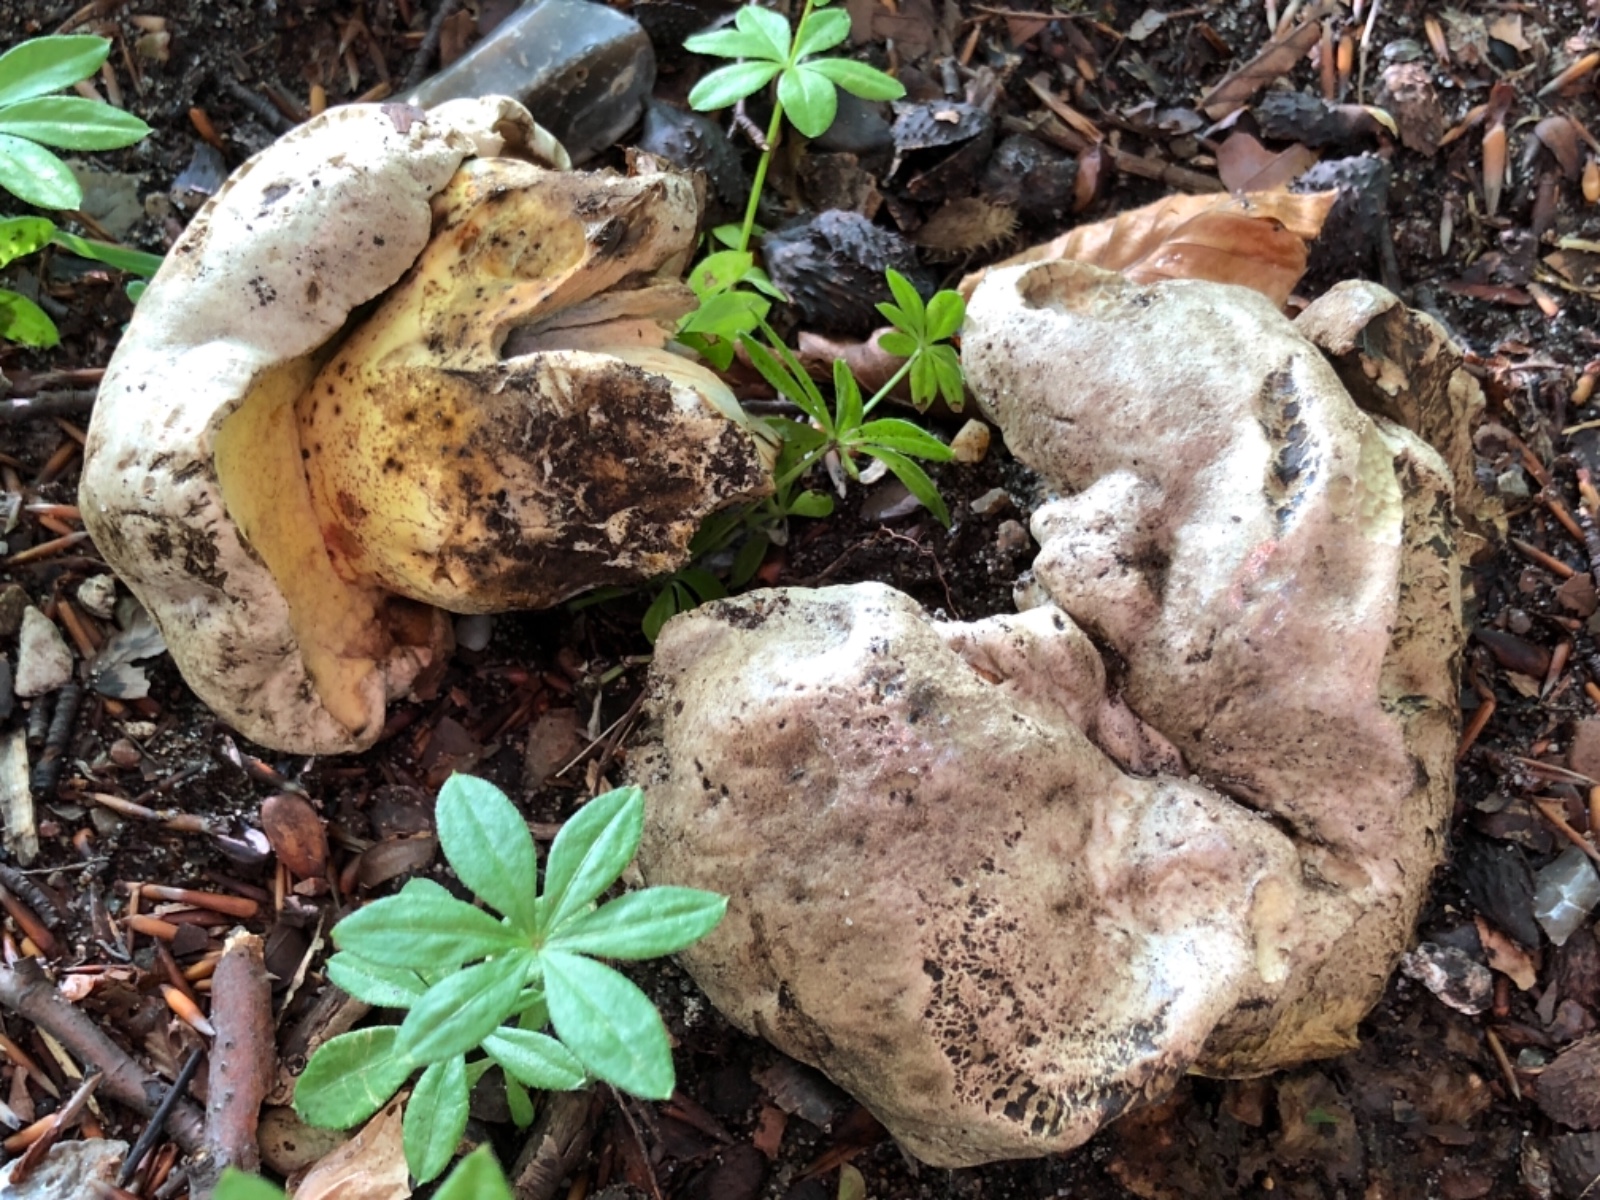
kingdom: Fungi
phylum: Basidiomycota
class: Agaricomycetes
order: Boletales
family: Boletaceae
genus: Caloboletus
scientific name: Caloboletus radicans
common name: rod-rørhat
